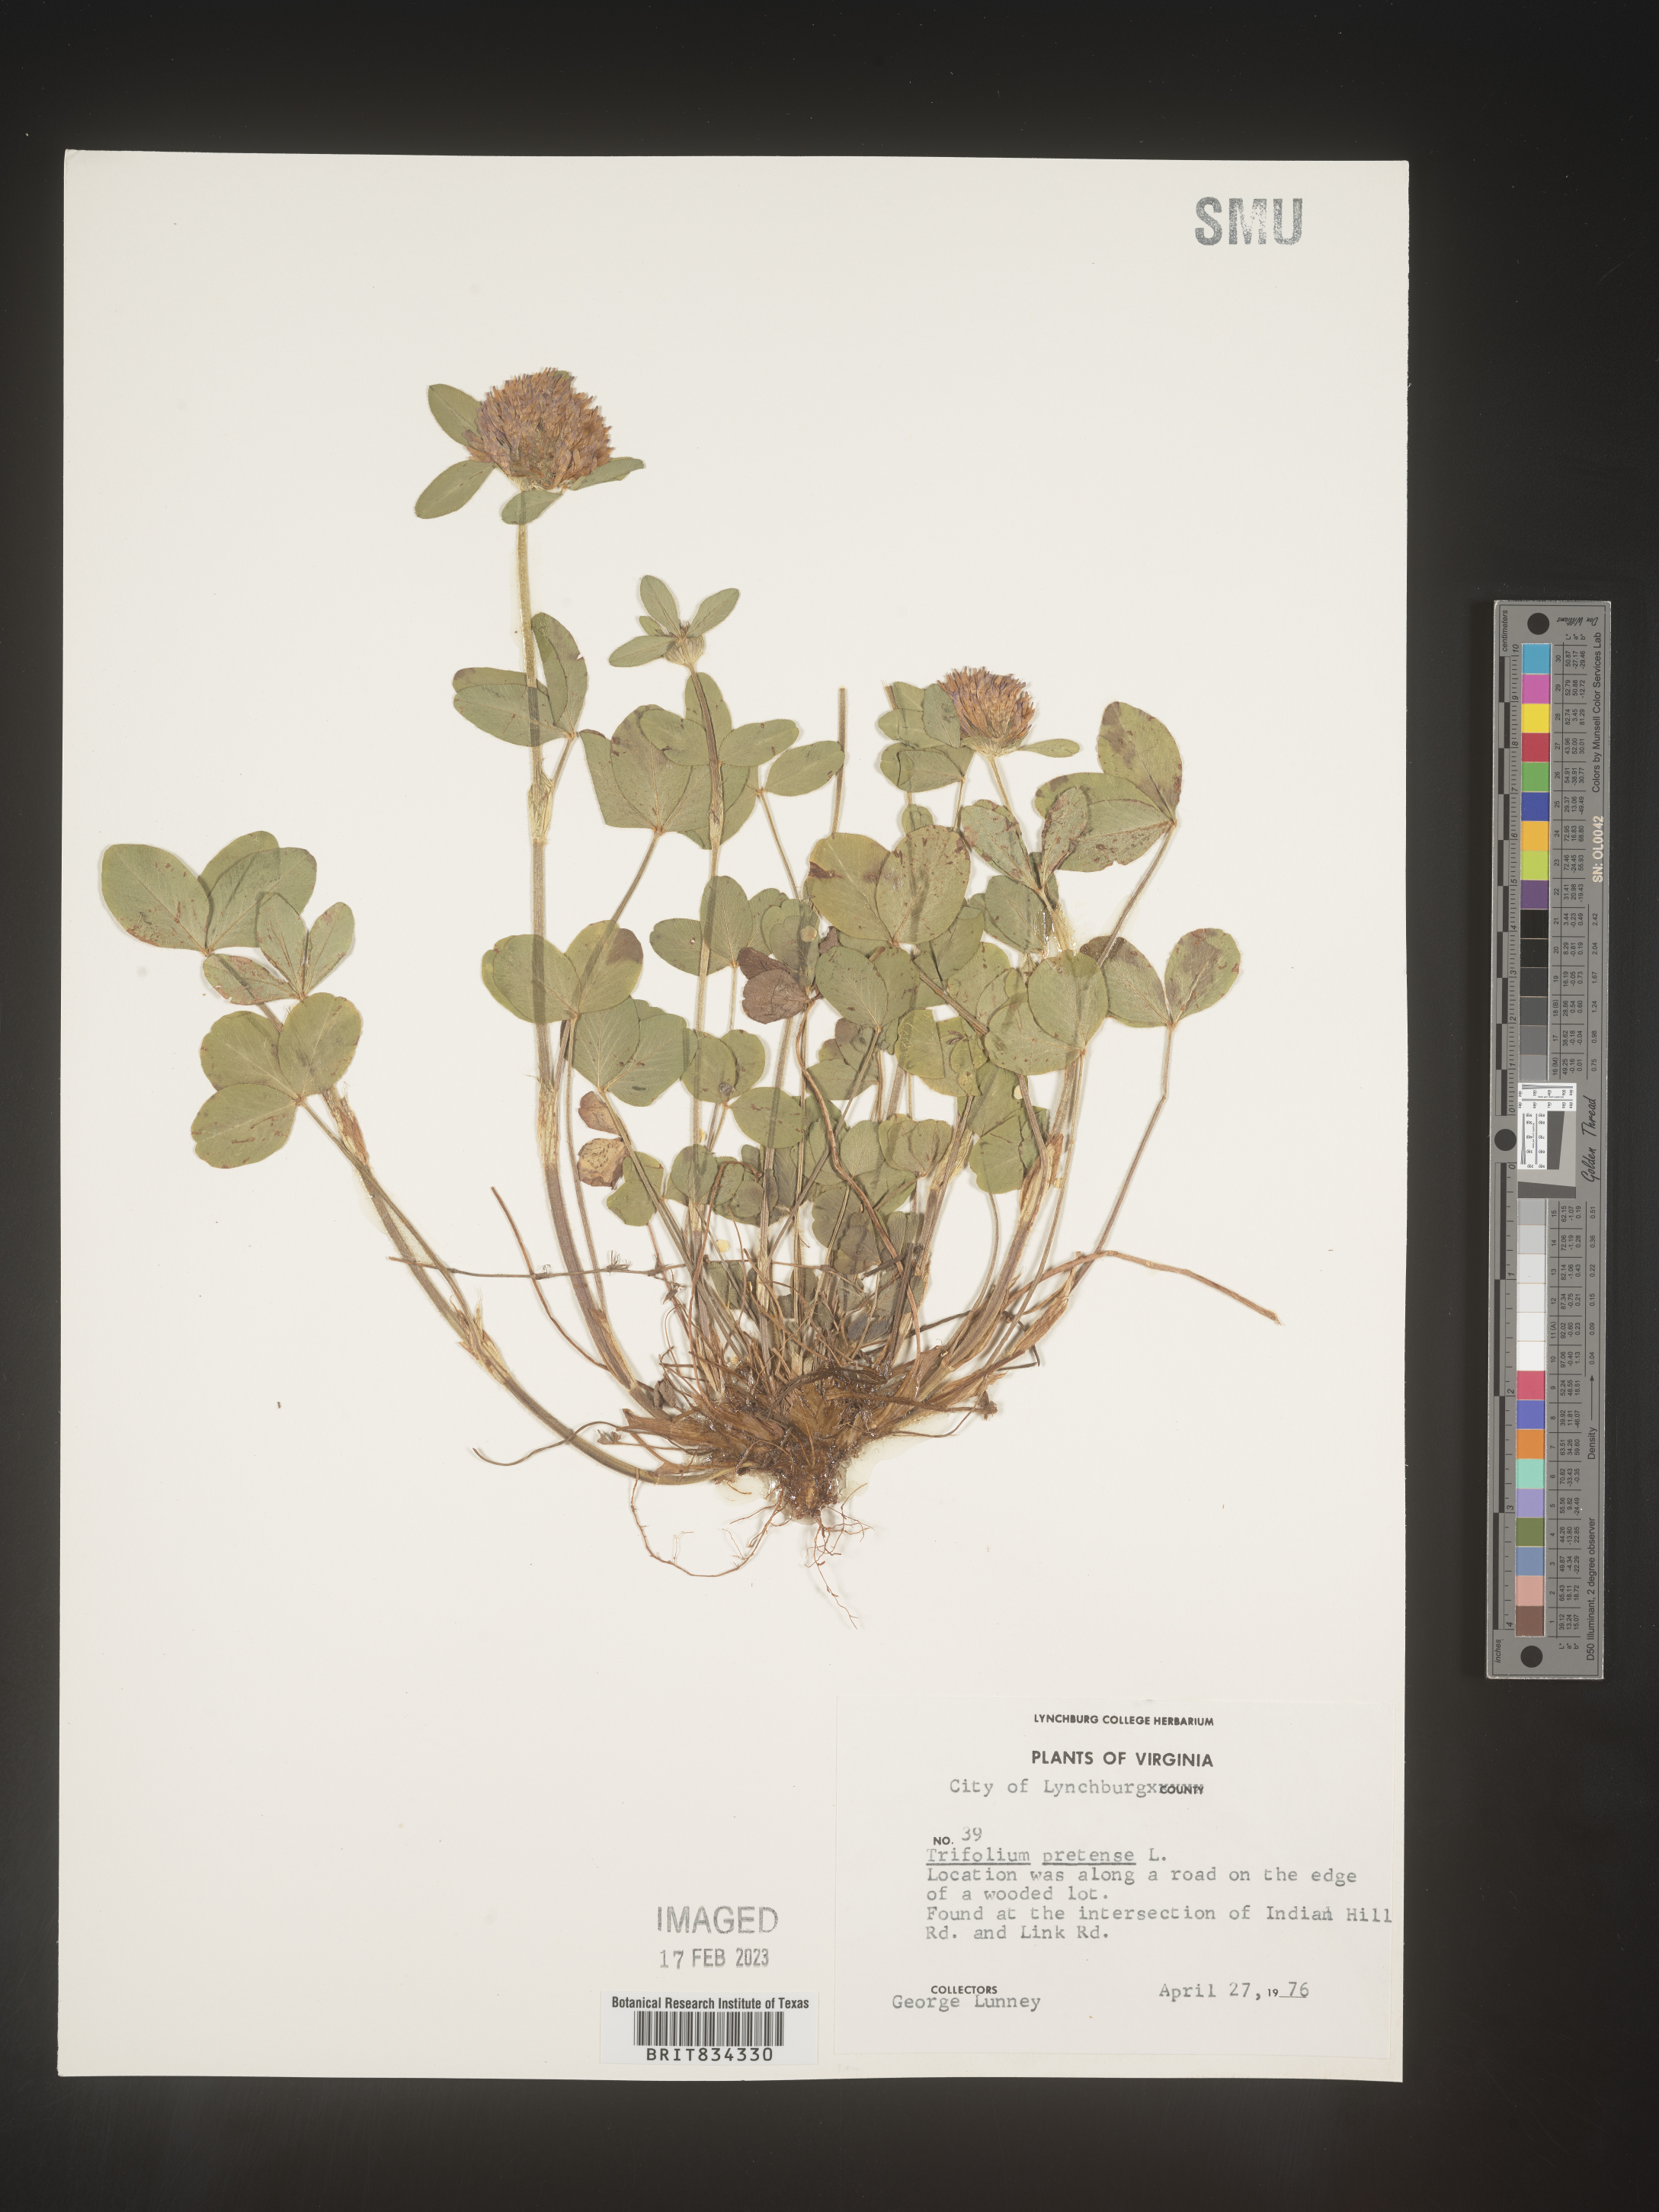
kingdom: Plantae
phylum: Tracheophyta
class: Magnoliopsida
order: Fabales
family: Fabaceae
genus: Trifolium
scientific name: Trifolium pratense
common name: Red clover
